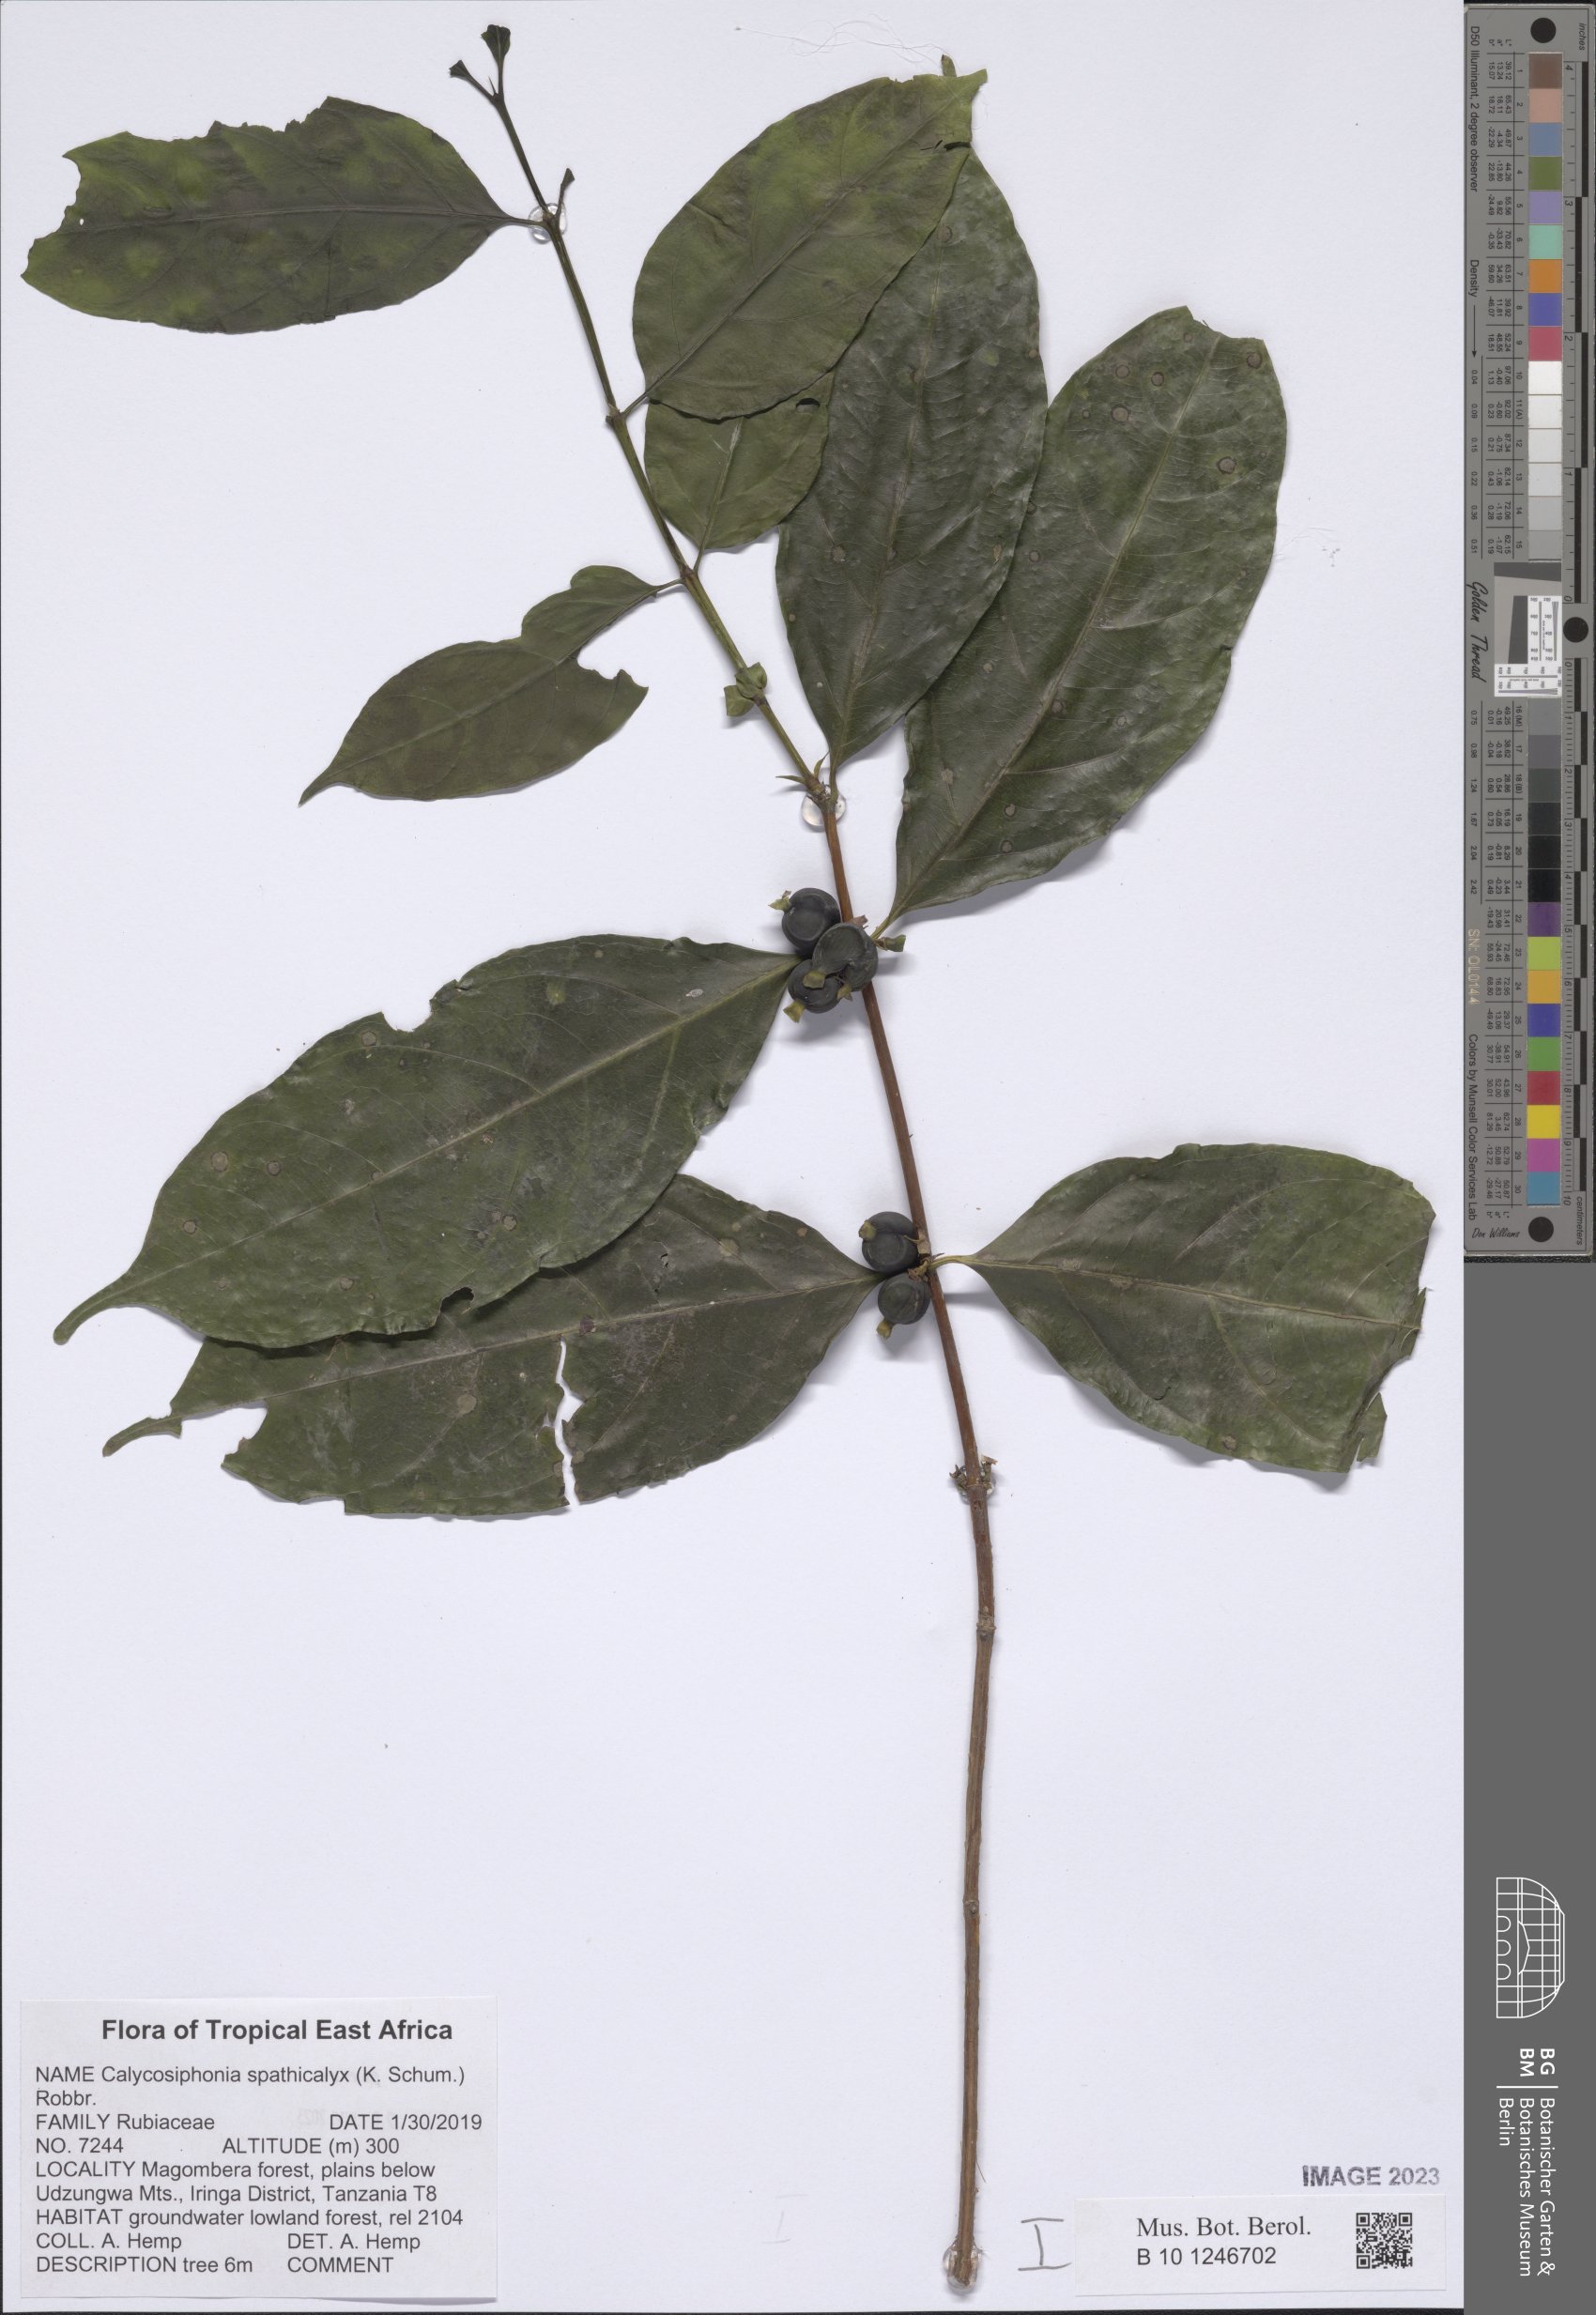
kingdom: Plantae
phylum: Tracheophyta
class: Magnoliopsida
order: Gentianales
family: Rubiaceae
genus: Calycosiphonia
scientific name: Calycosiphonia spathicalyx
